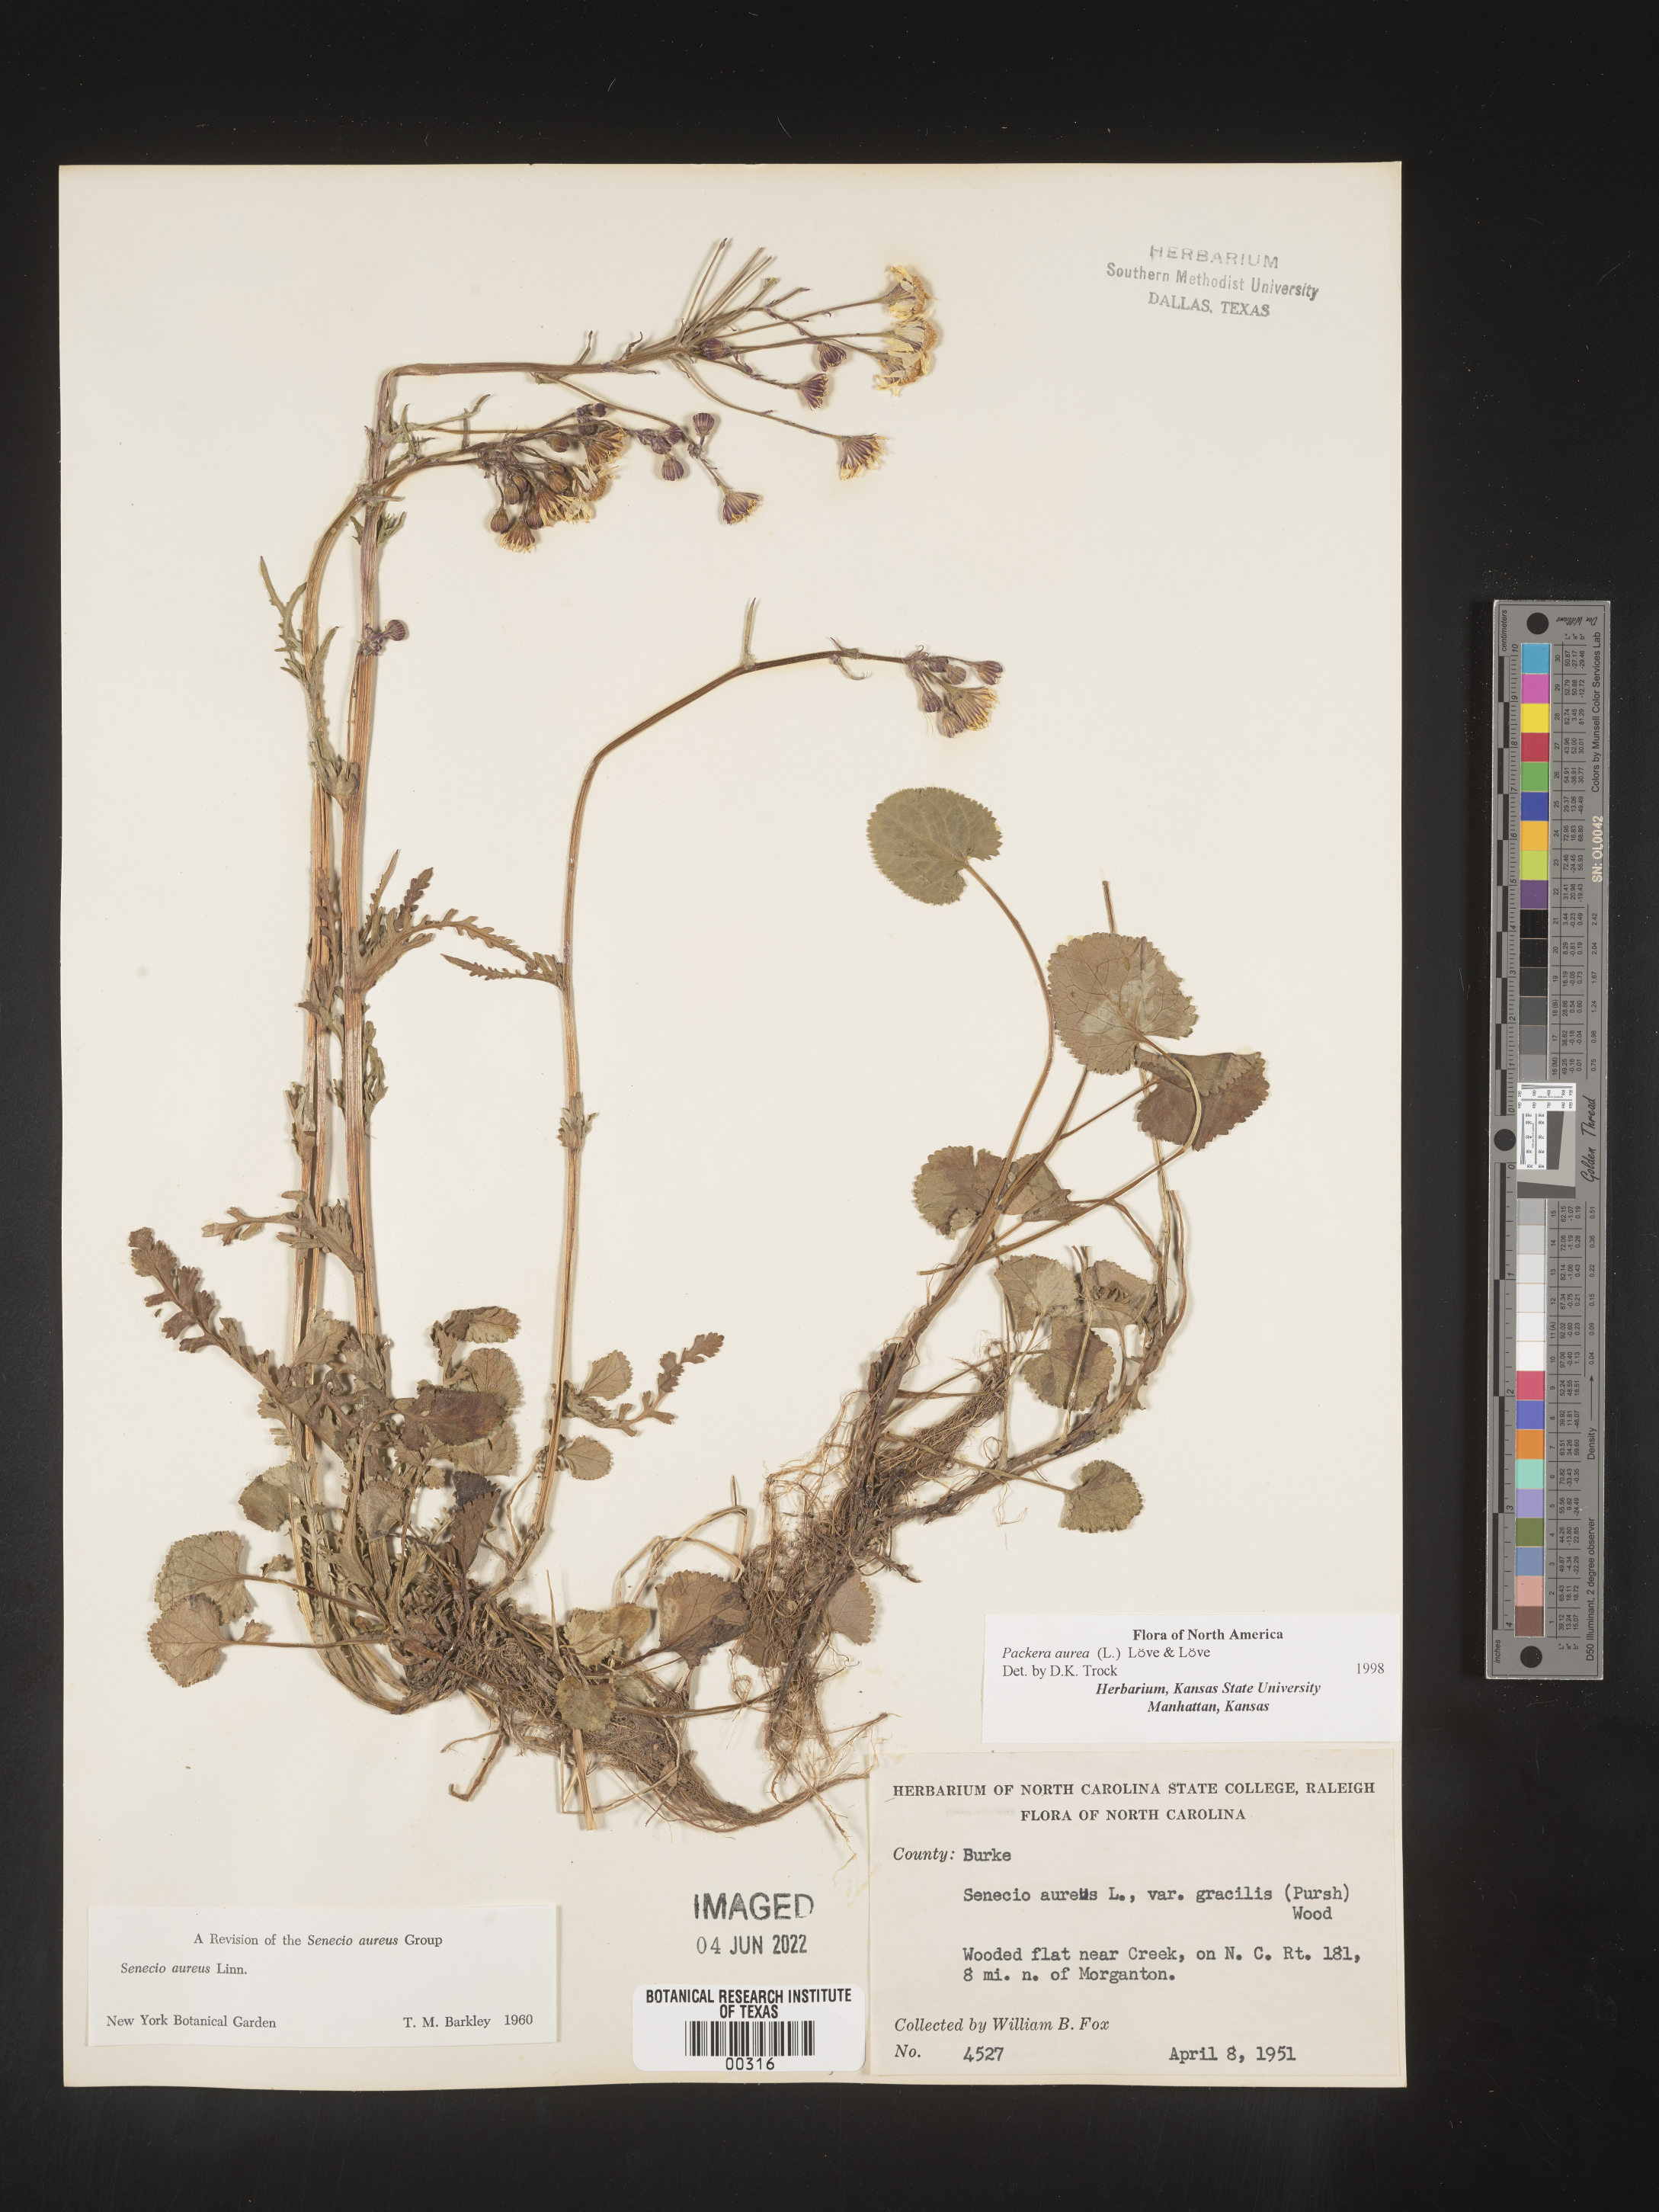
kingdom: Plantae
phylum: Tracheophyta
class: Magnoliopsida
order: Asterales
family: Asteraceae
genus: Packera
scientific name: Packera aurea
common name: Golden groundsel
